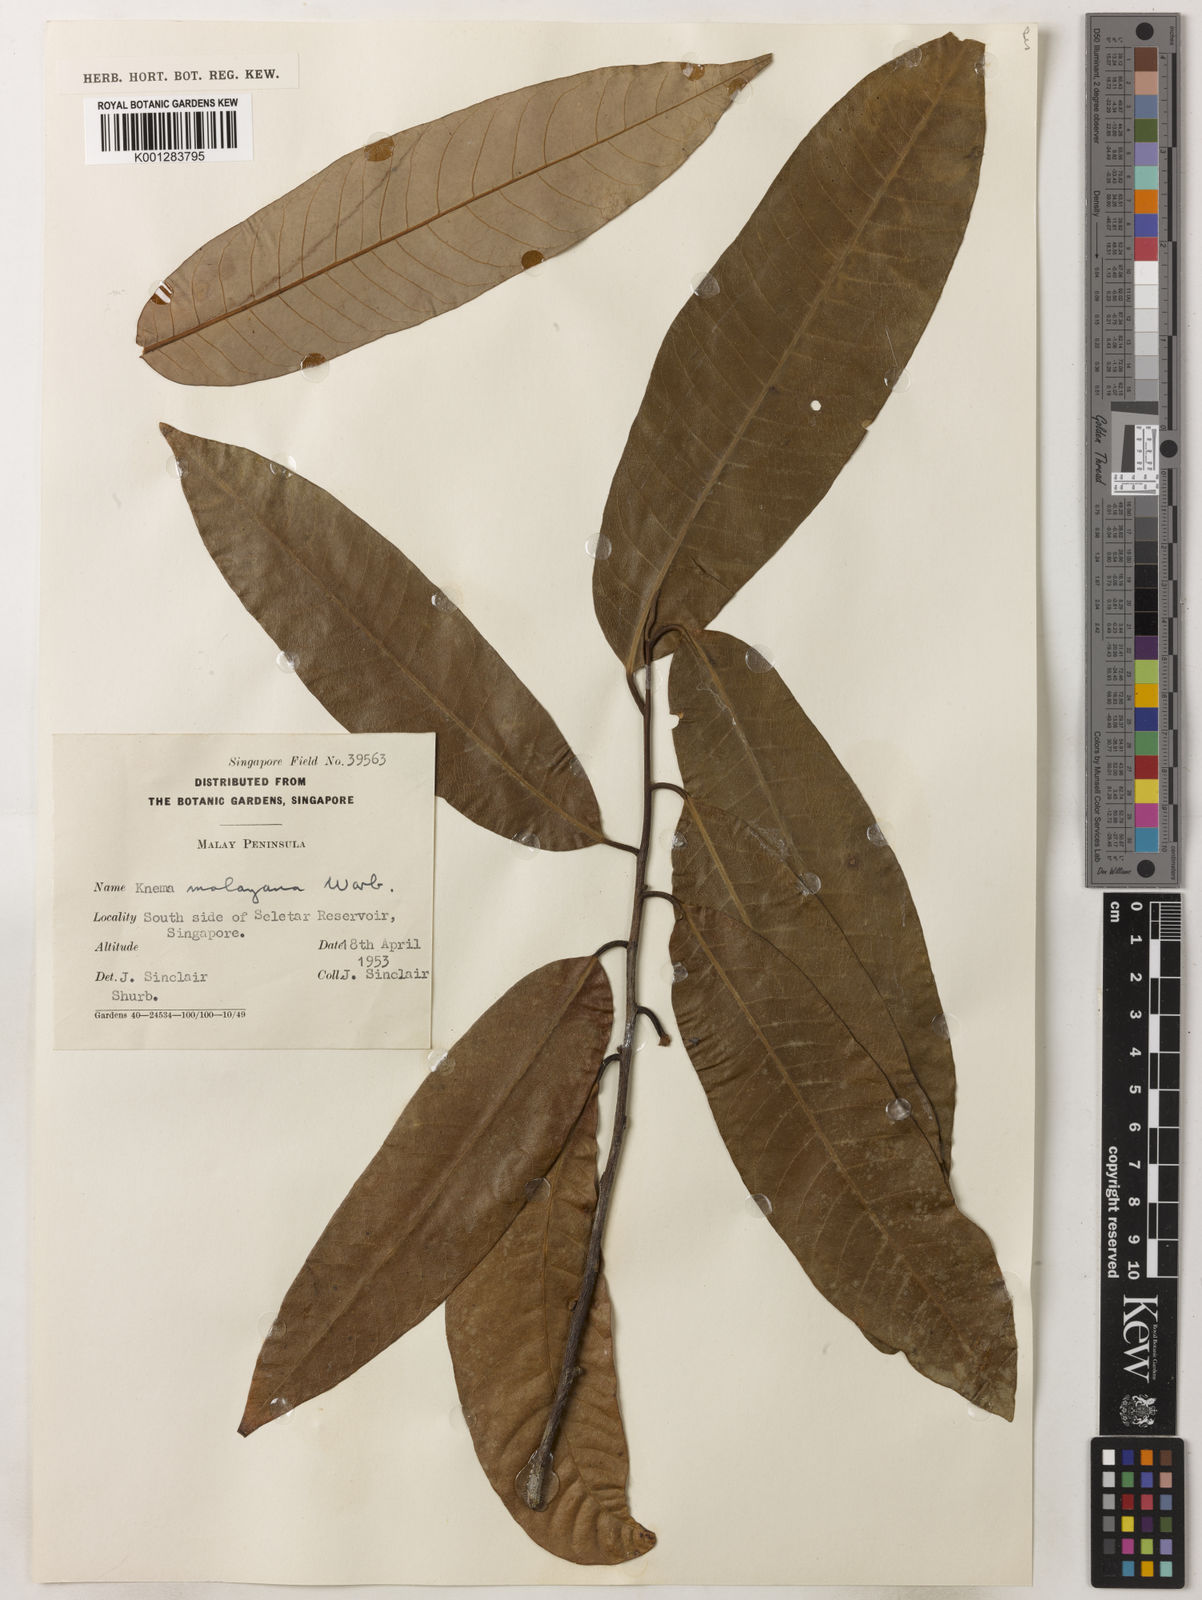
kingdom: Plantae
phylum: Tracheophyta
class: Magnoliopsida
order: Magnoliales
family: Myristicaceae
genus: Knema
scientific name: Knema malayana
